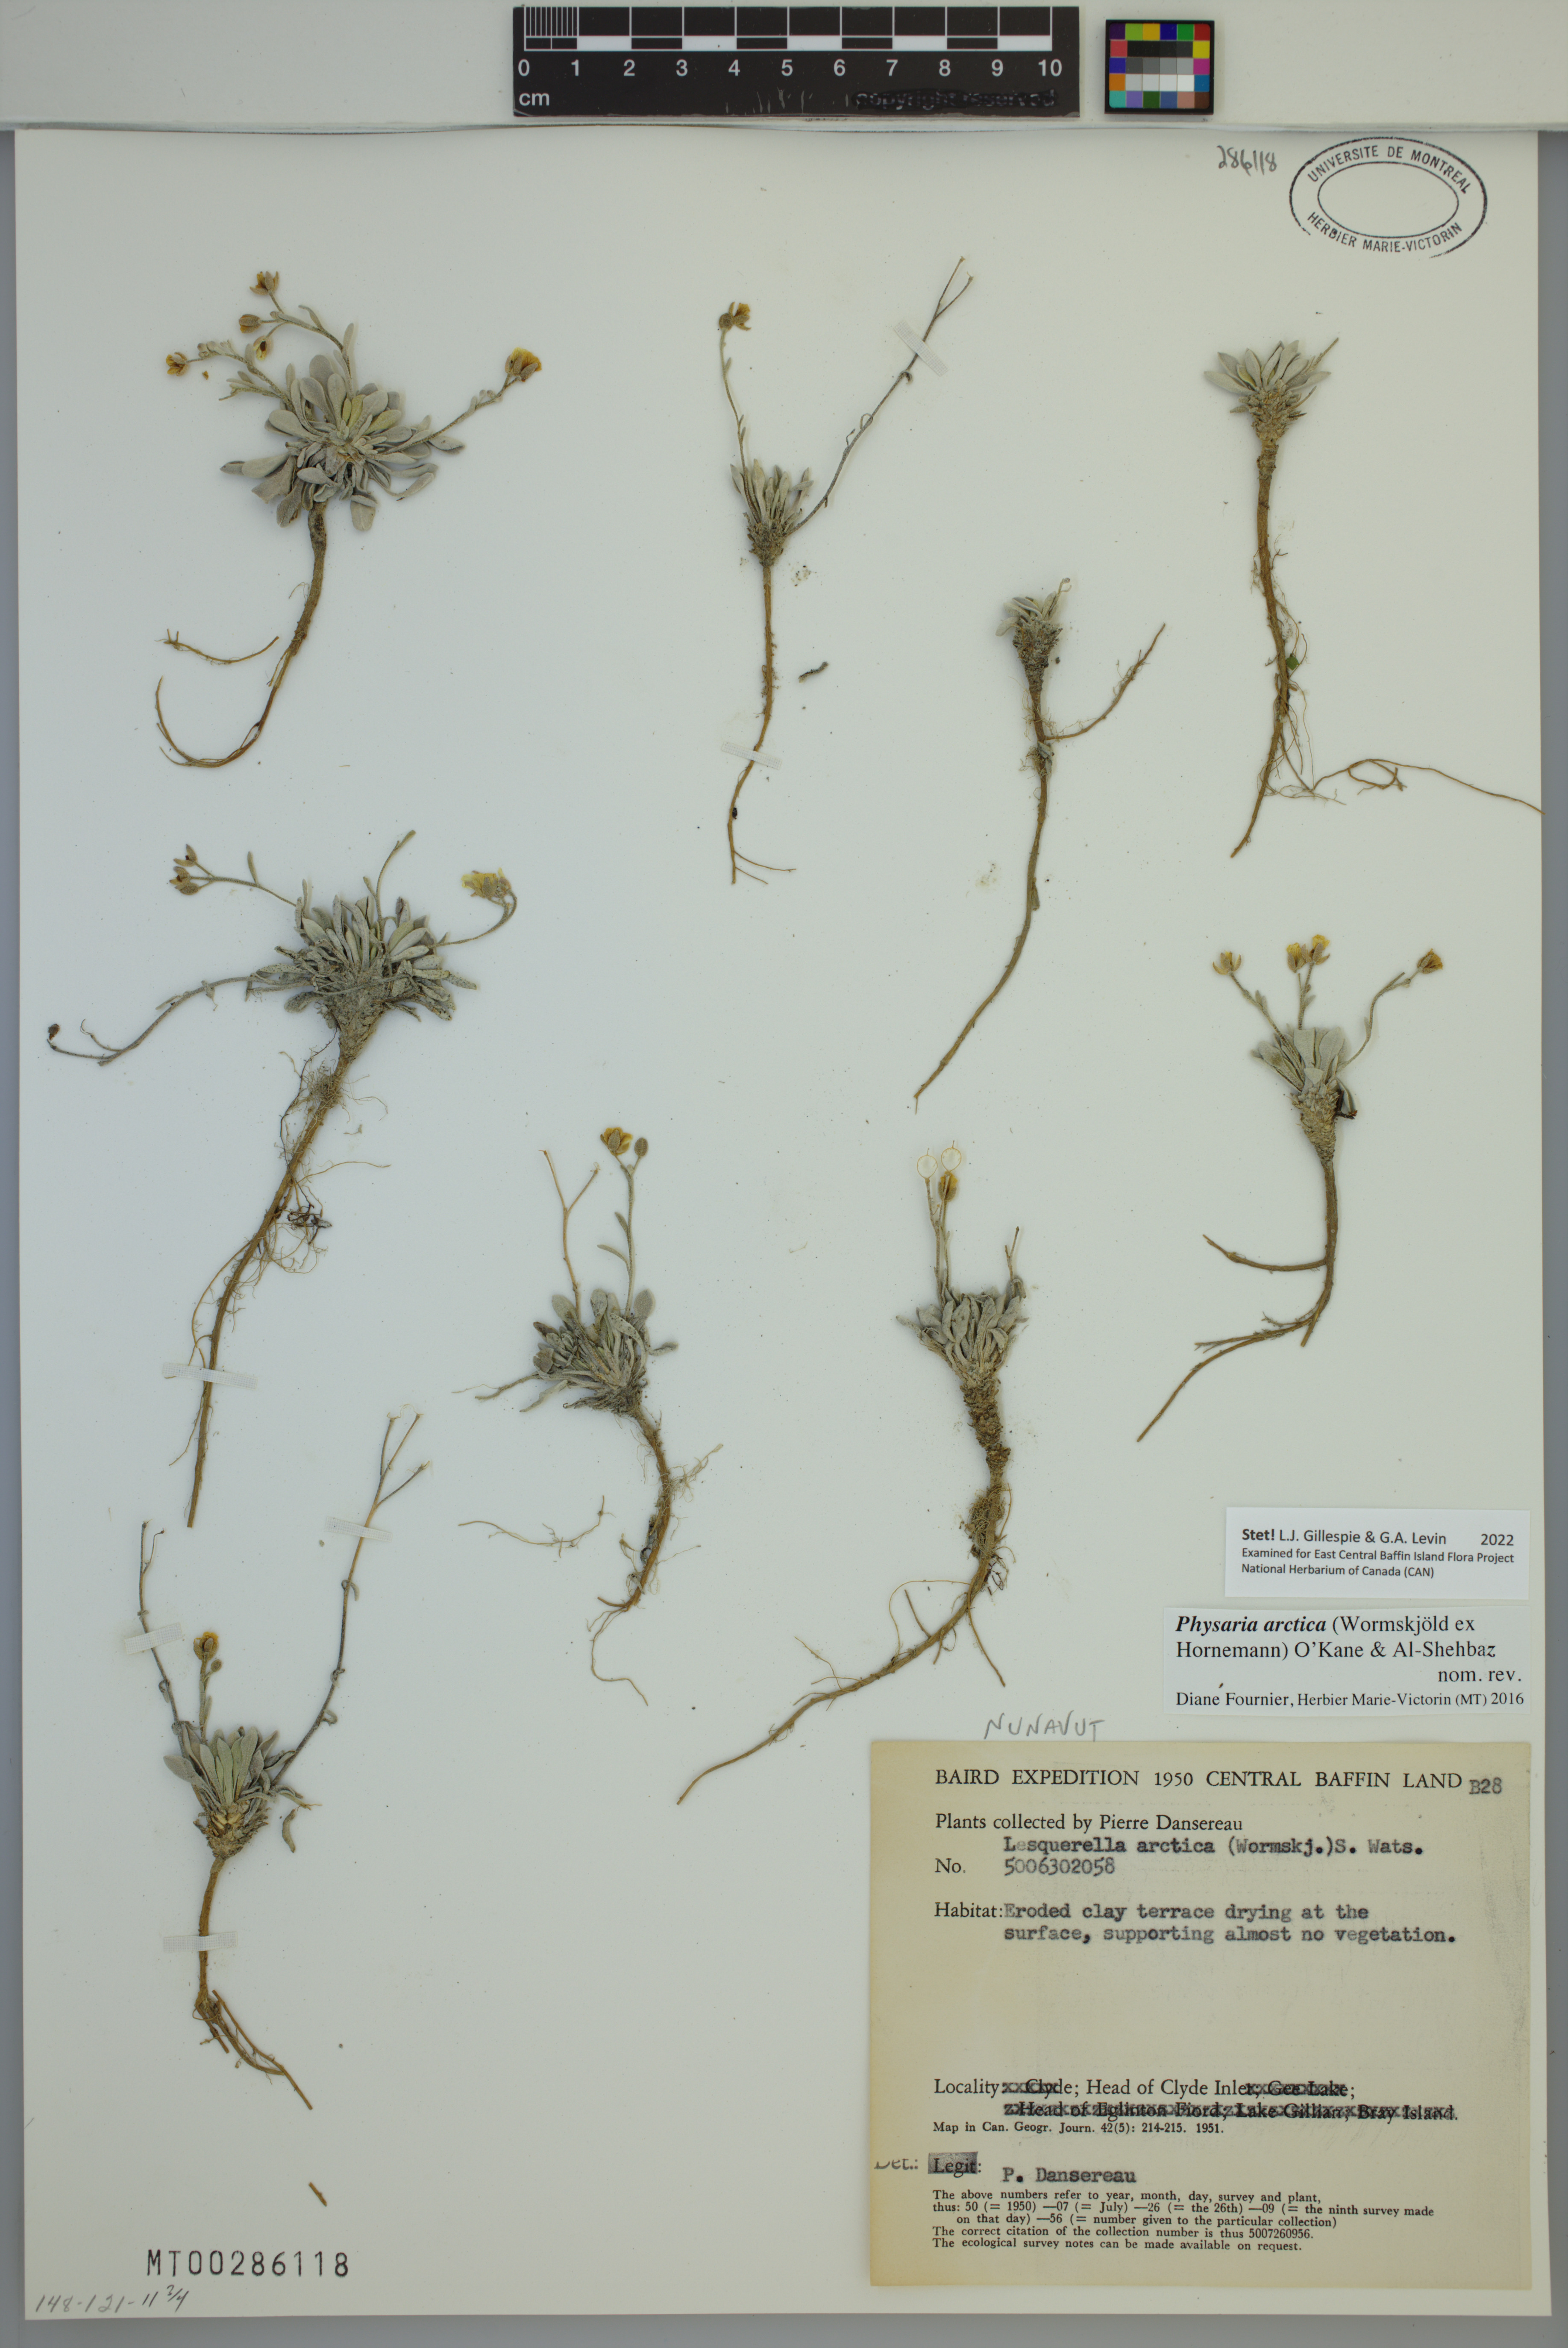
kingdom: Plantae
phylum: Tracheophyta
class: Magnoliopsida
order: Brassicales
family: Brassicaceae
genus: Physaria
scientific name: Physaria arctica
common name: Arctic bladderpod
